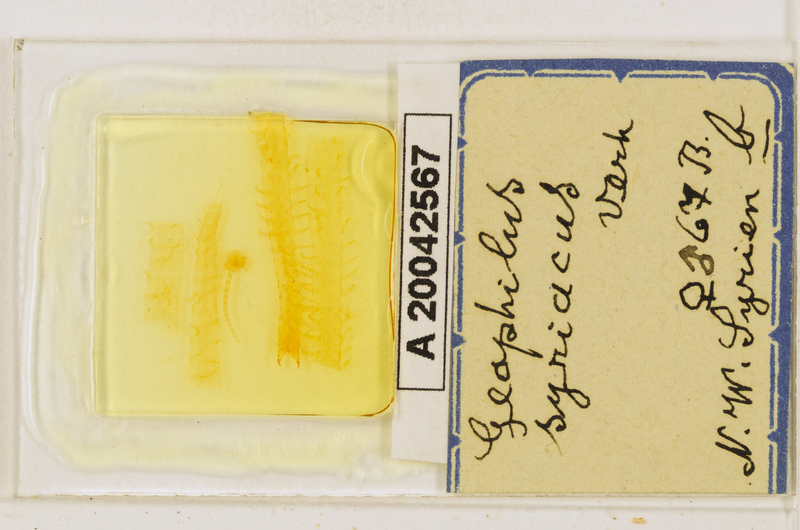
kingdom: Animalia
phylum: Arthropoda
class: Chilopoda
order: Geophilomorpha
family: Geophilidae
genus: Pachymerium
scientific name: Pachymerium syriacum
